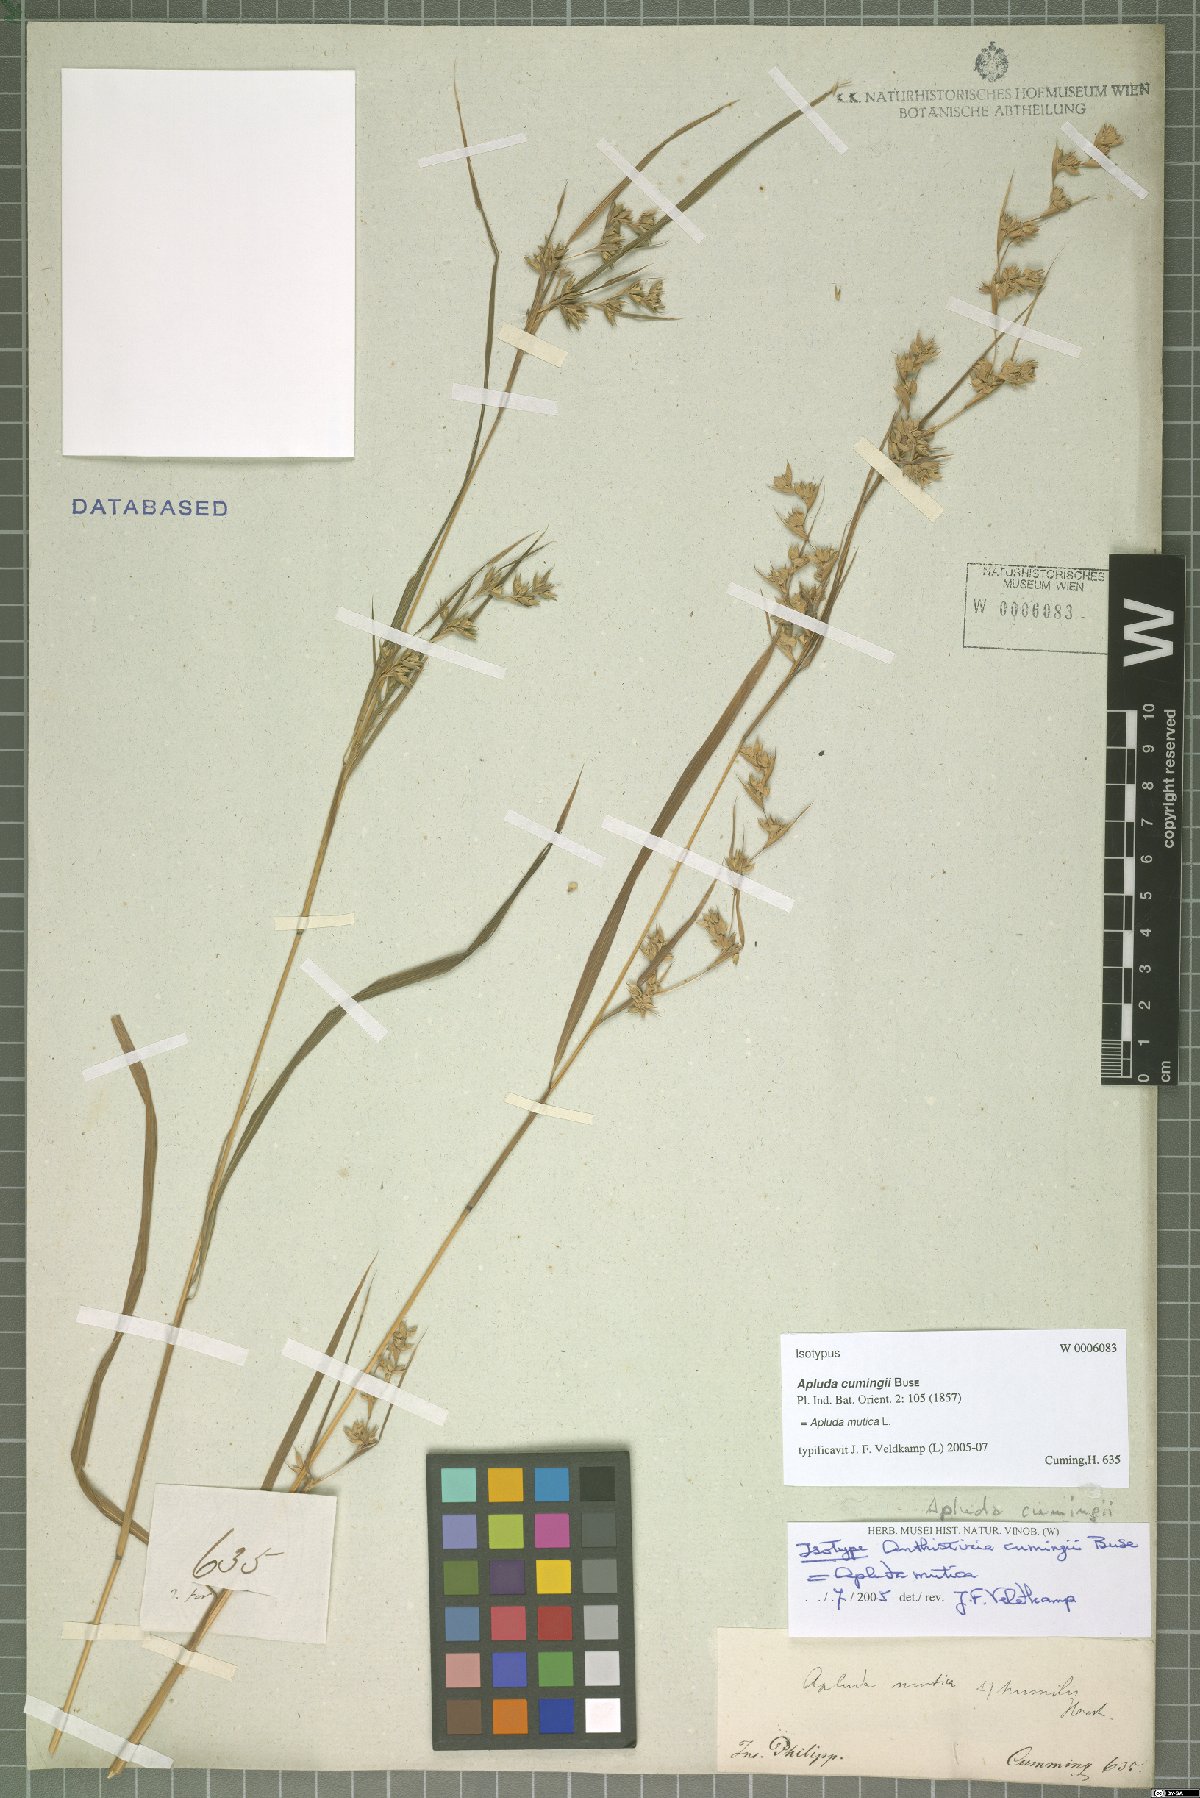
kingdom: Plantae
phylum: Tracheophyta
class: Liliopsida
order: Poales
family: Poaceae
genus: Apluda
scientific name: Apluda mutica
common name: Mauritian grass
